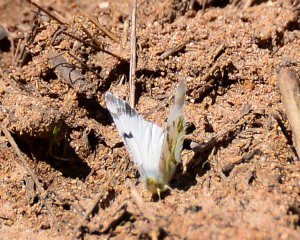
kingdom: Animalia
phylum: Arthropoda
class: Insecta
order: Lepidoptera
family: Pieridae
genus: Euchloe
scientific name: Euchloe olympia
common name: Olympia Marble
